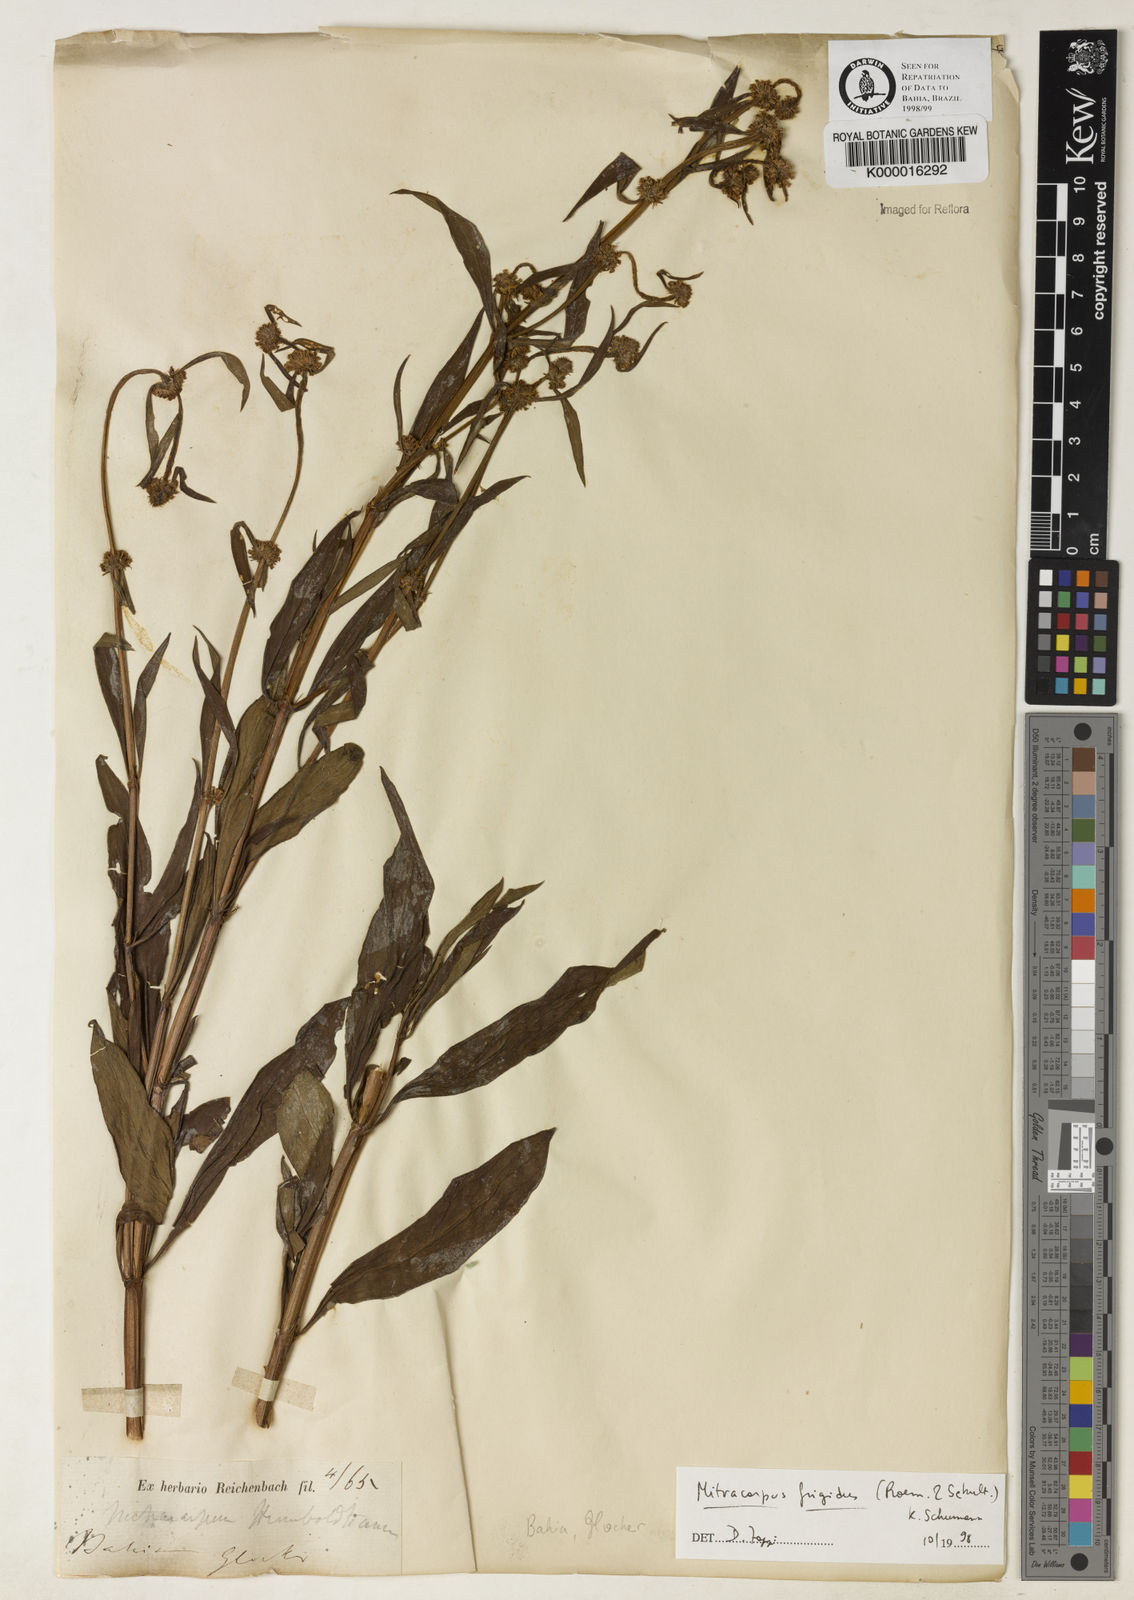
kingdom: Plantae
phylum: Tracheophyta
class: Magnoliopsida
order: Gentianales
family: Rubiaceae
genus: Mitracarpus
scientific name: Mitracarpus frigidus
